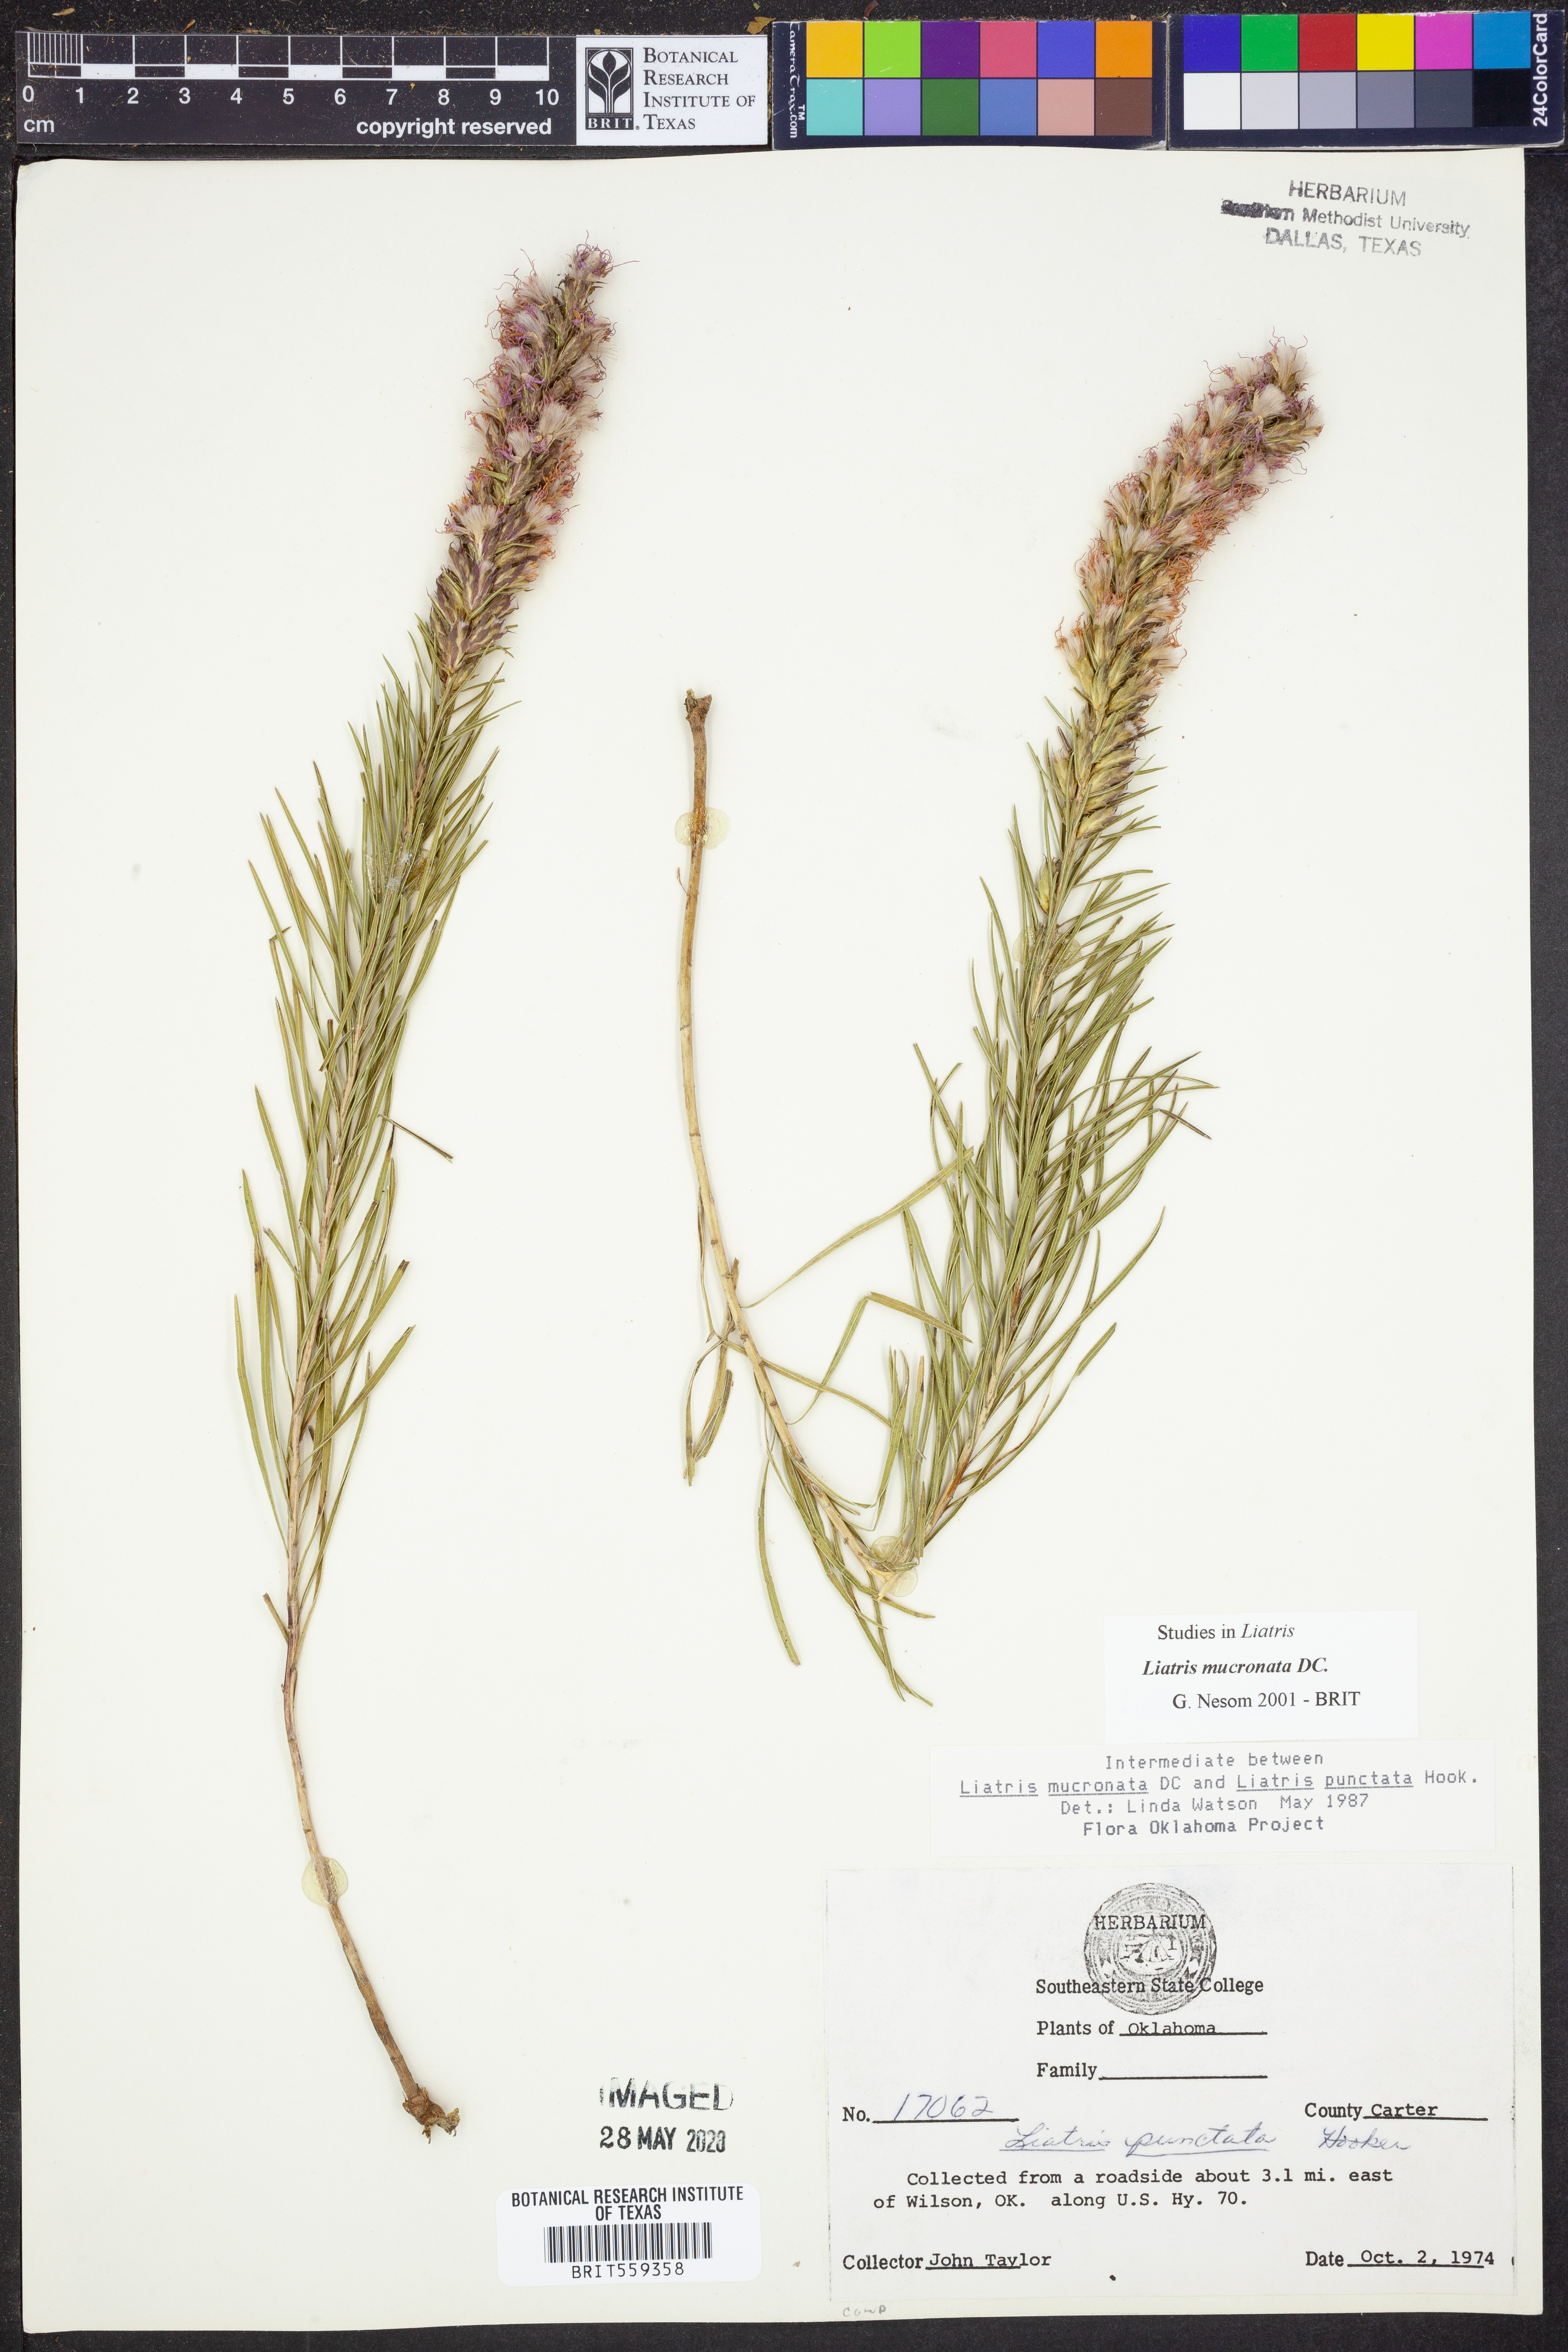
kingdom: Plantae
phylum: Tracheophyta
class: Magnoliopsida
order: Asterales
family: Asteraceae
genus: Liatris
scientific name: Liatris mucronata
